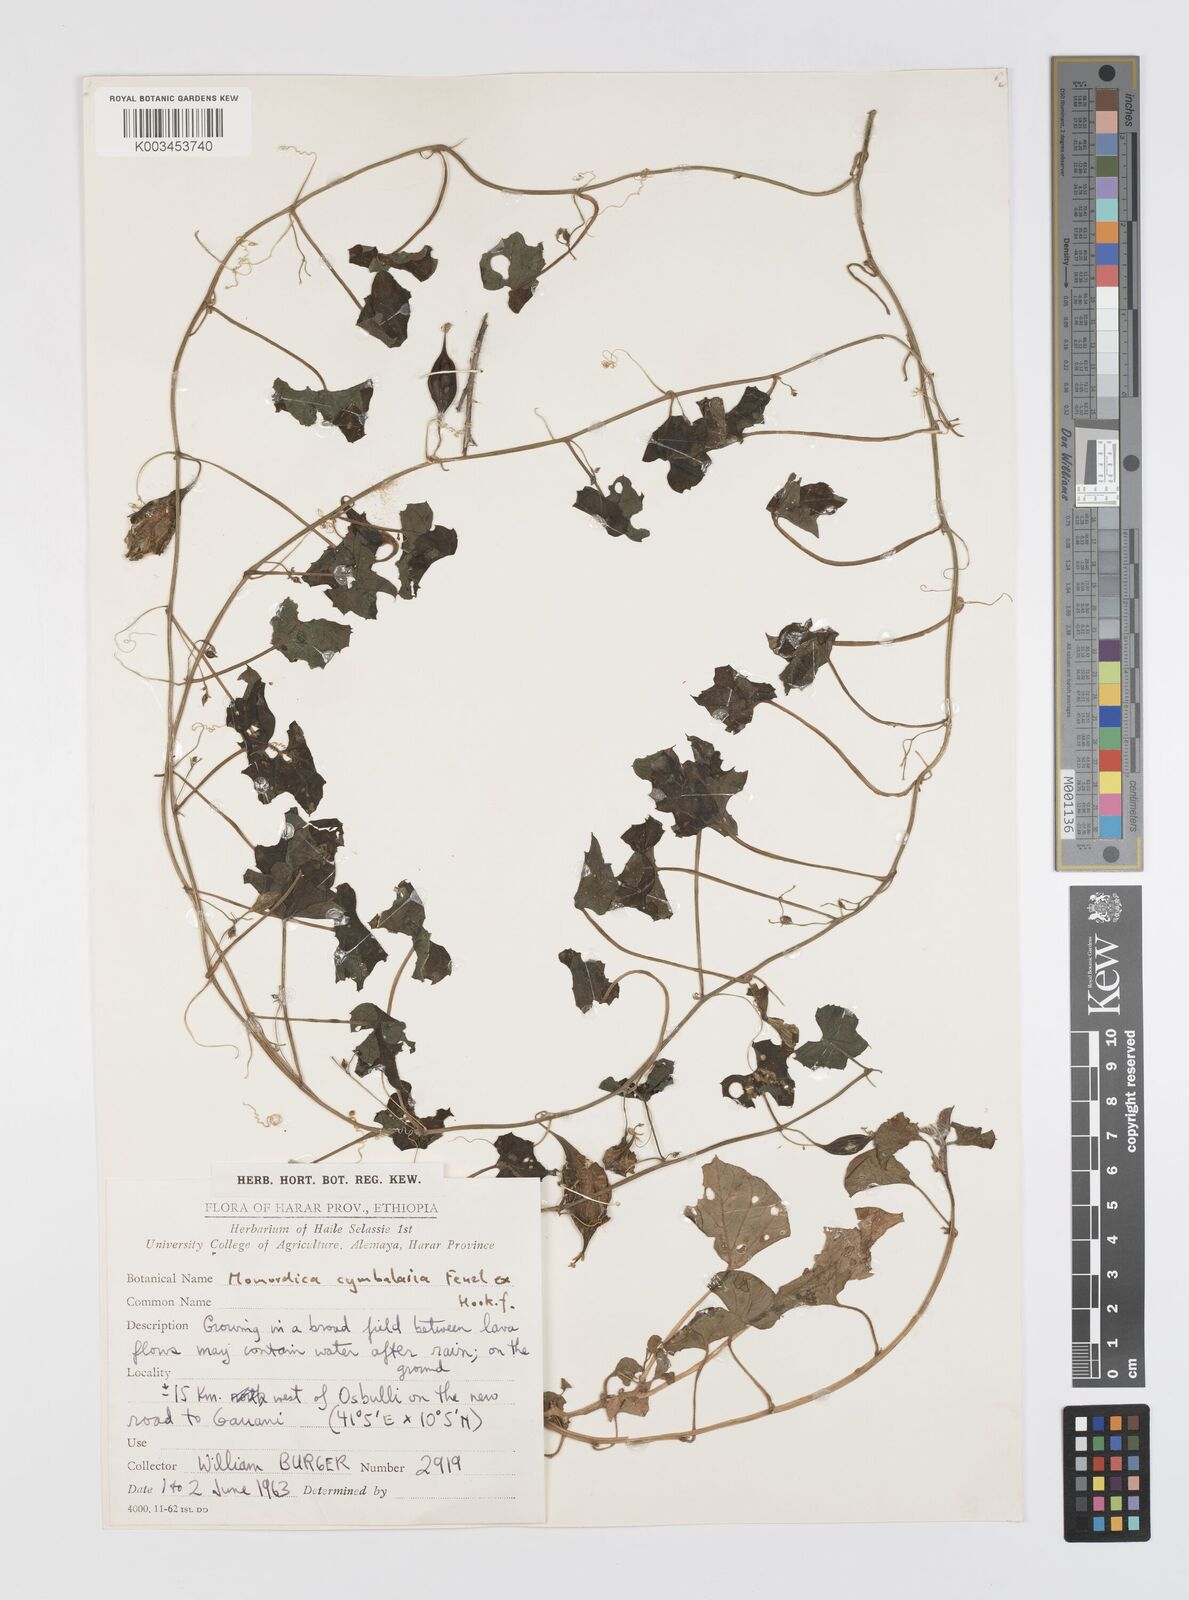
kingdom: Plantae
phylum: Tracheophyta
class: Magnoliopsida
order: Cucurbitales
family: Cucurbitaceae
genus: Momordica
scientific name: Momordica cymbalaria
